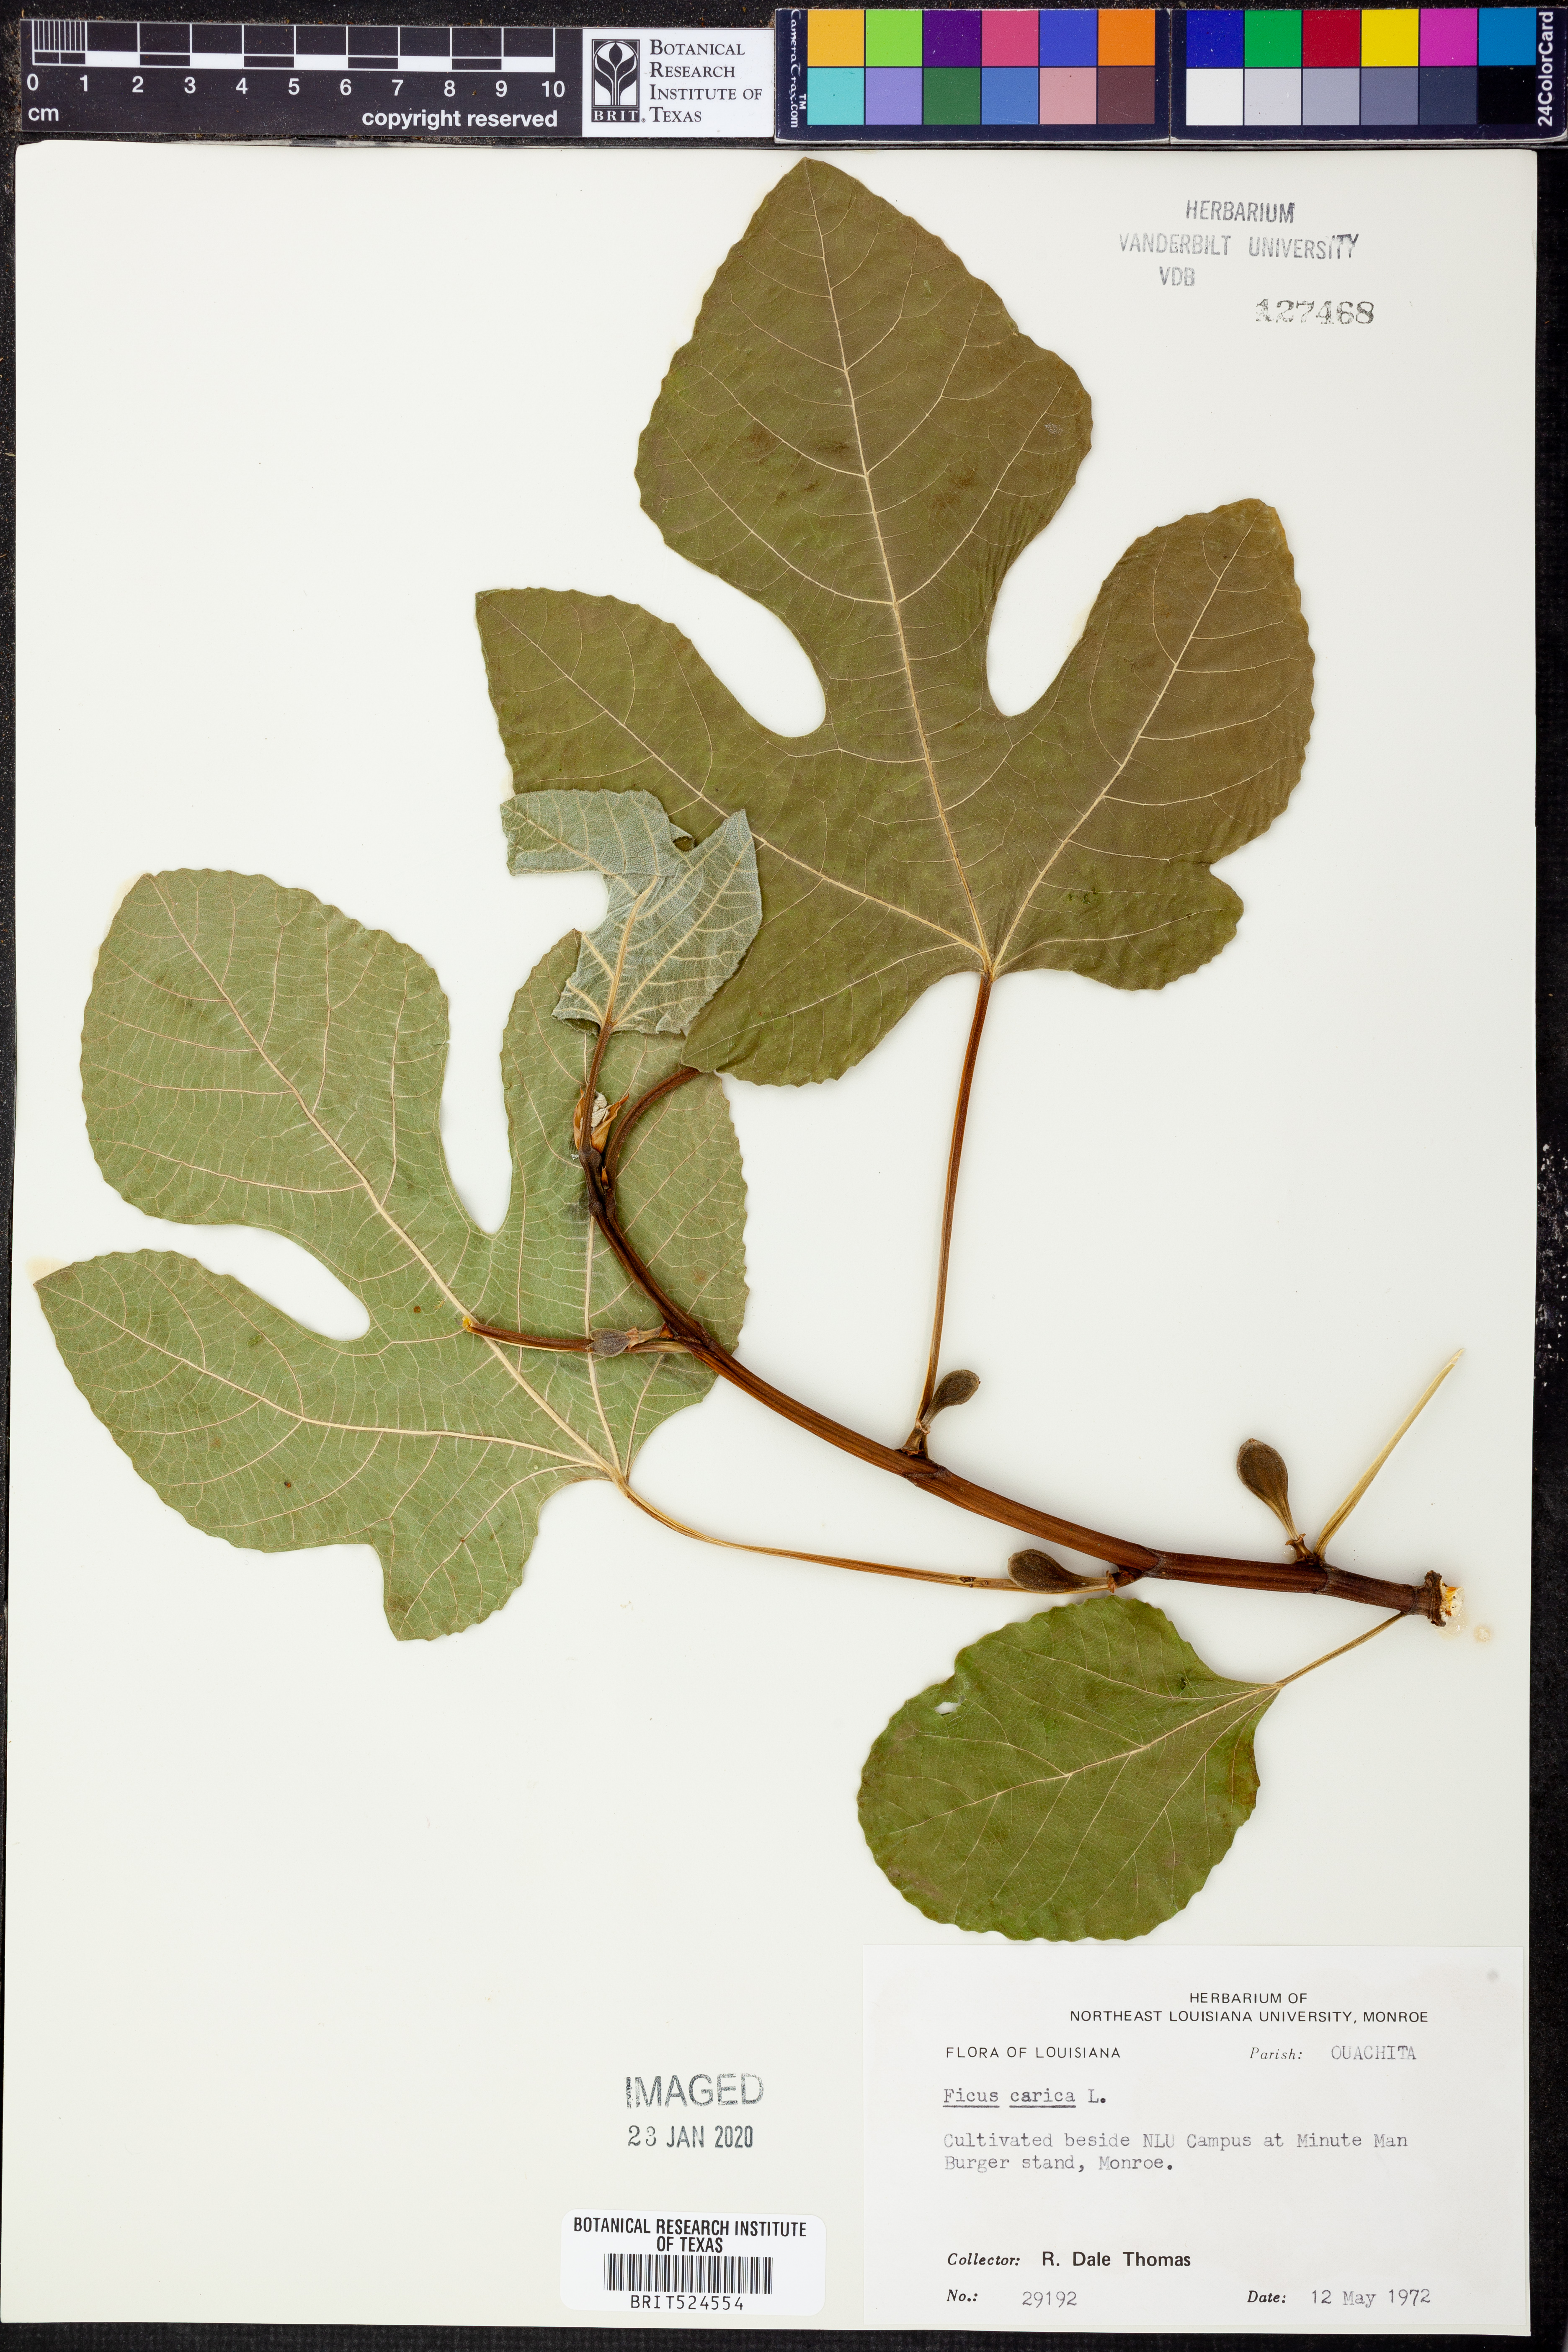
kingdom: Plantae
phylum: Tracheophyta
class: Magnoliopsida
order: Rosales
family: Moraceae
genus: Ficus
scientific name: Ficus carica
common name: Fig
